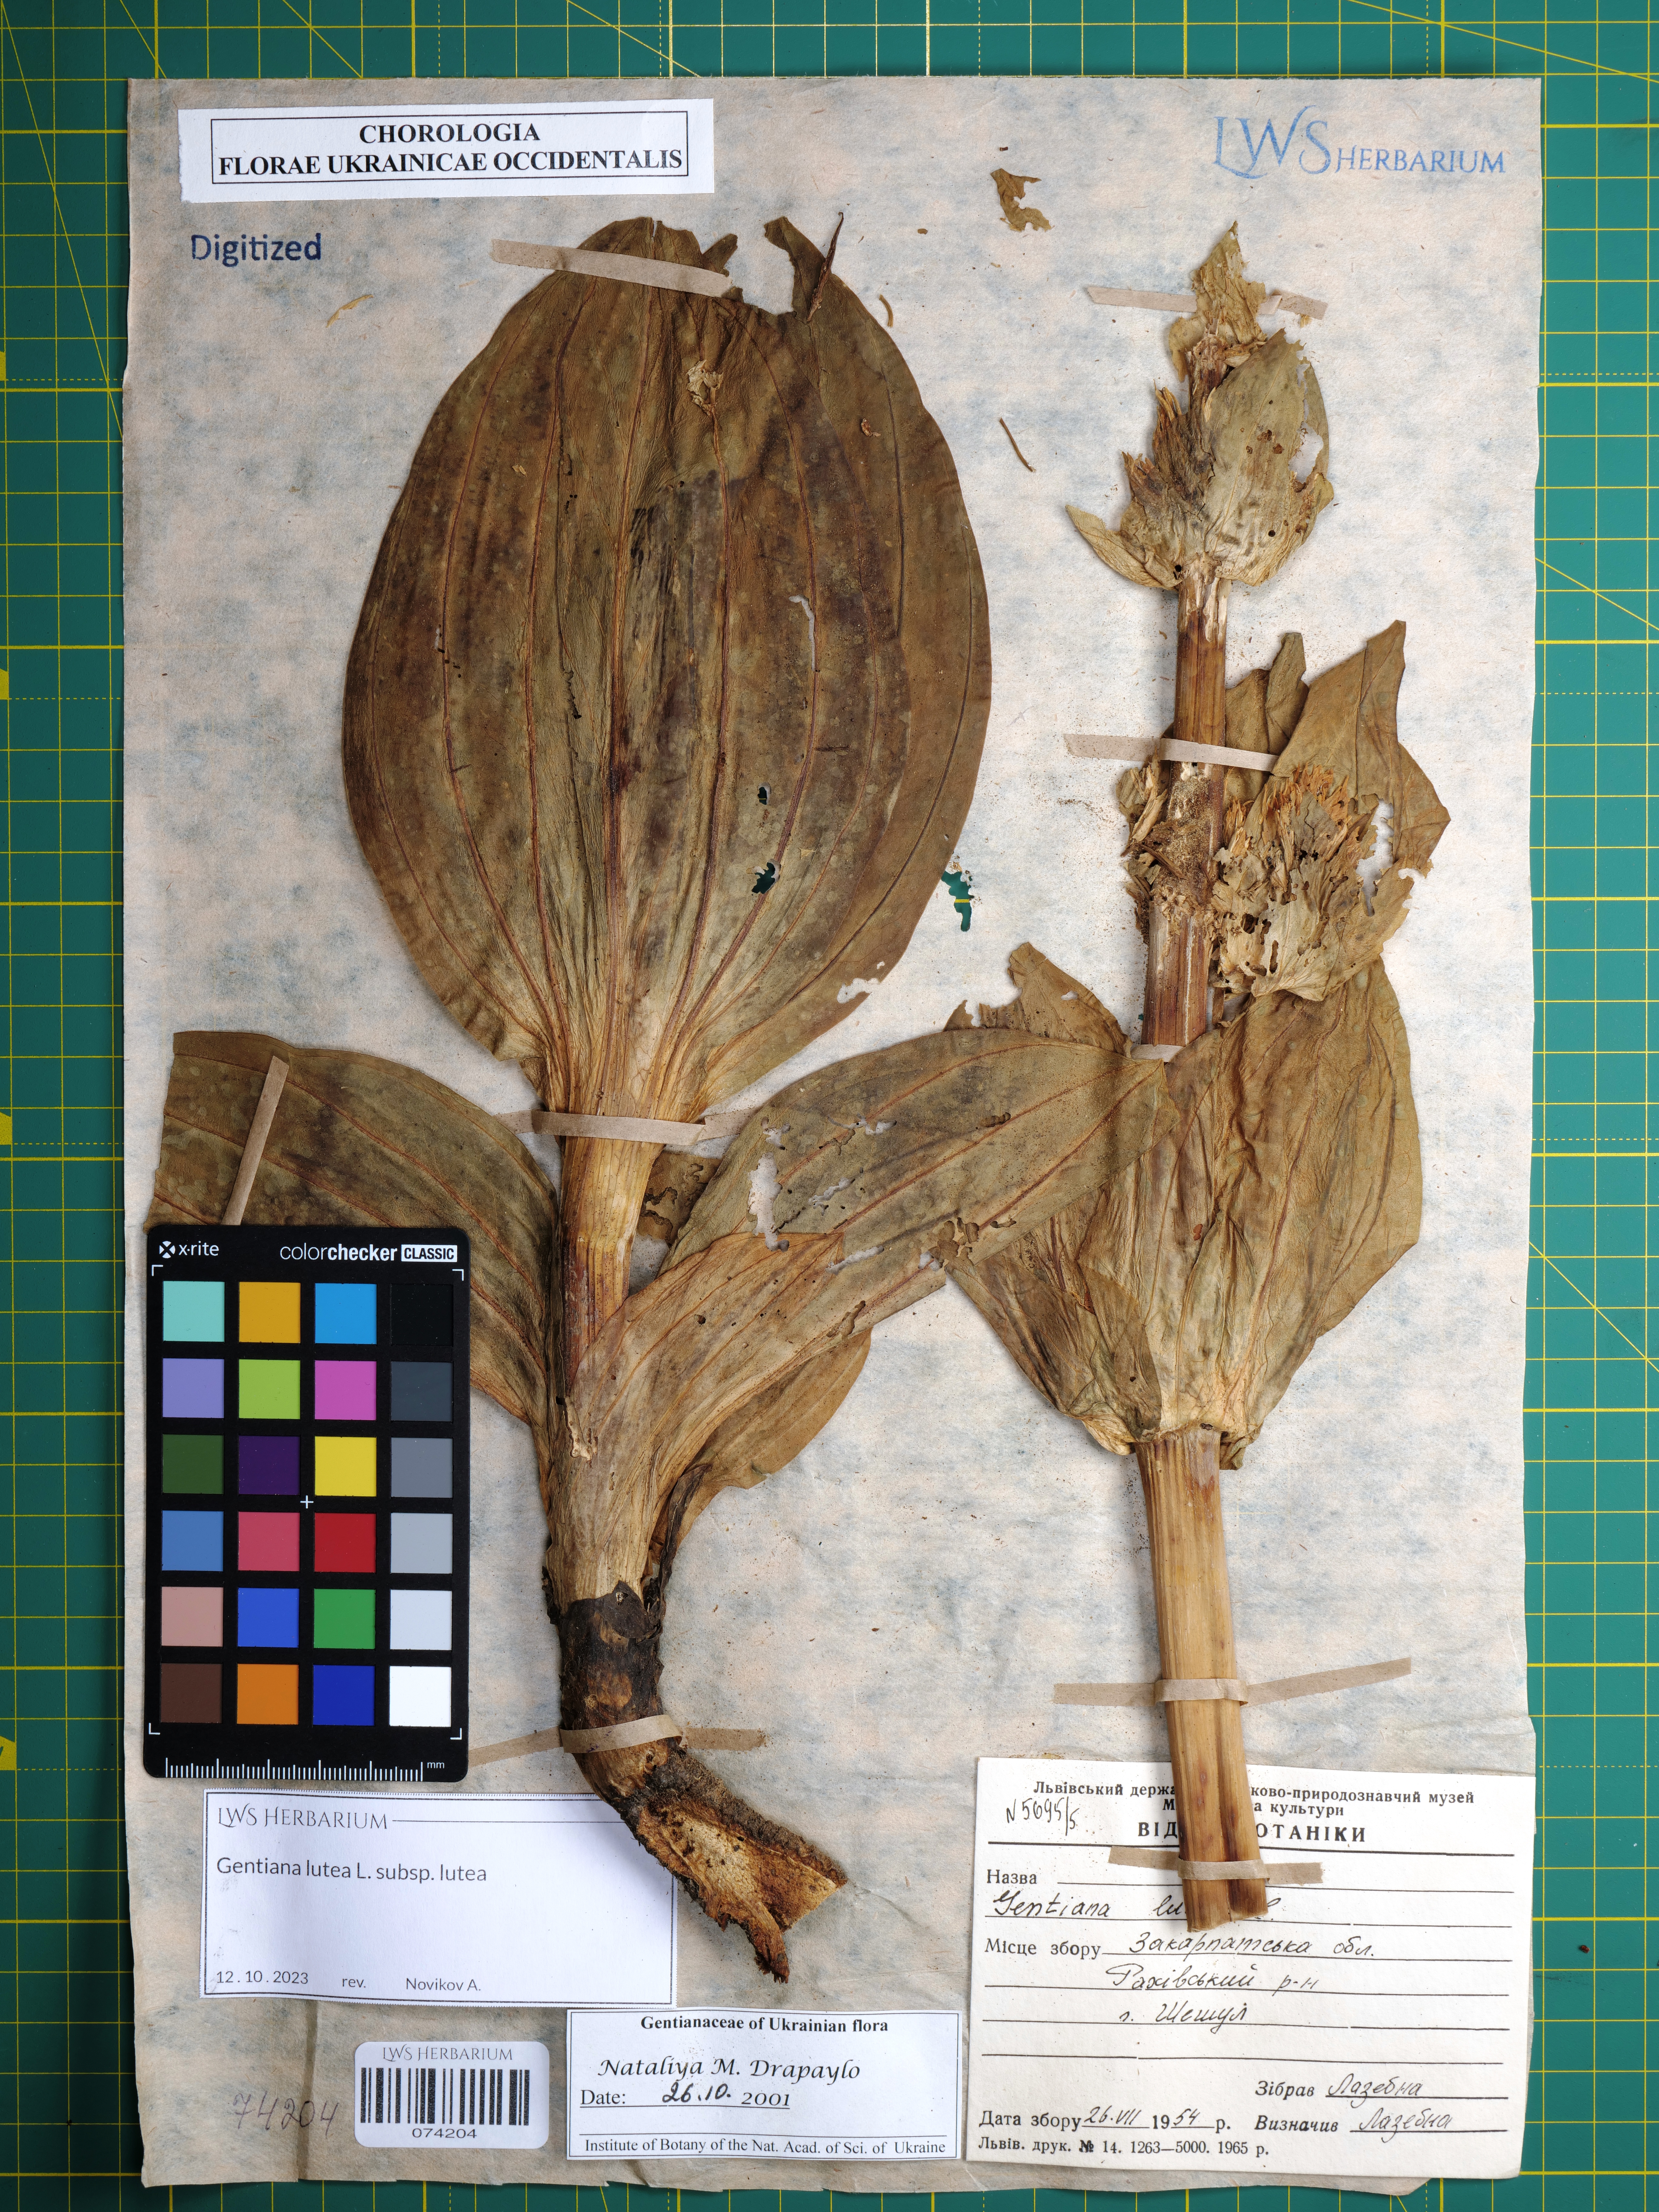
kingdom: Plantae
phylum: Tracheophyta
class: Magnoliopsida
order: Gentianales
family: Gentianaceae
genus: Gentiana
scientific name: Gentiana lutea
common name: Great yellow gentian
